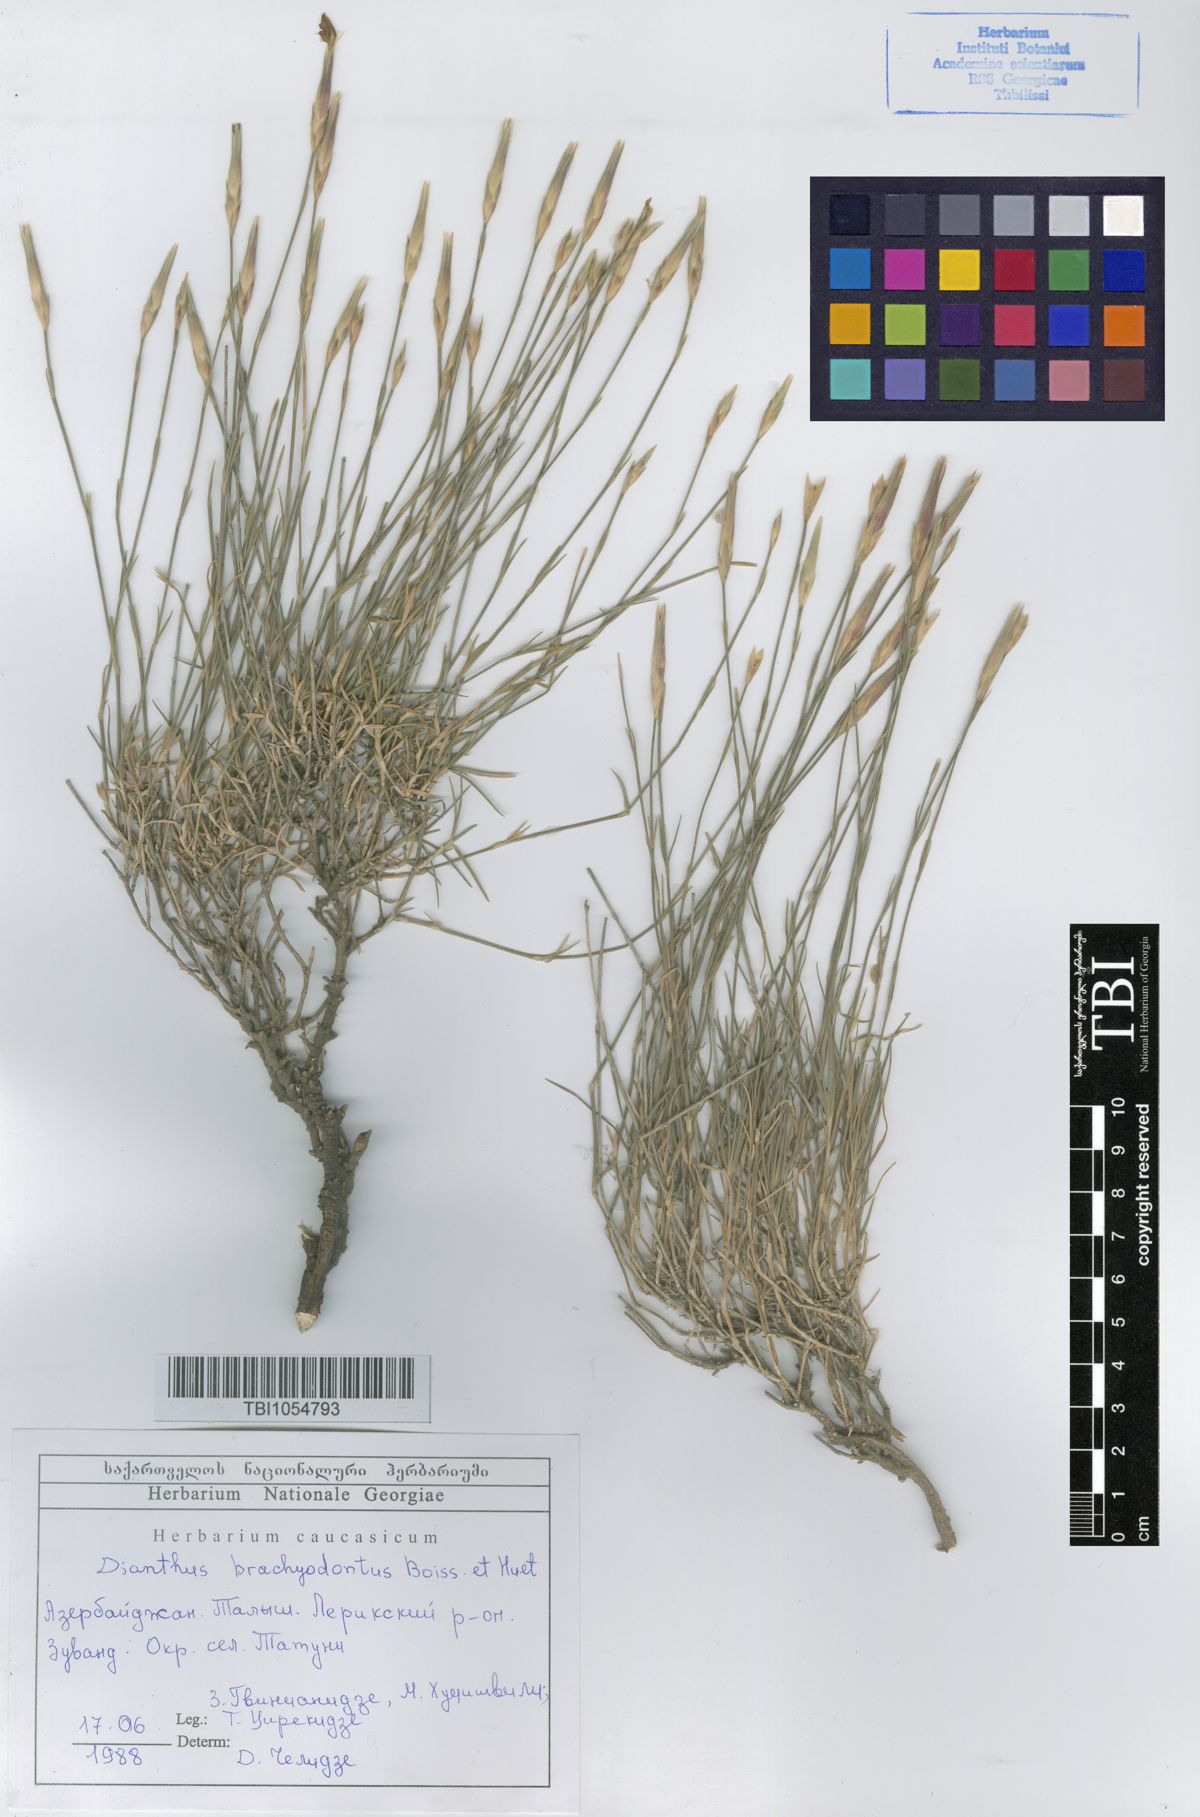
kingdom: Plantae
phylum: Tracheophyta
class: Magnoliopsida
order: Caryophyllales
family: Caryophyllaceae
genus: Dianthus
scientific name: Dianthus
